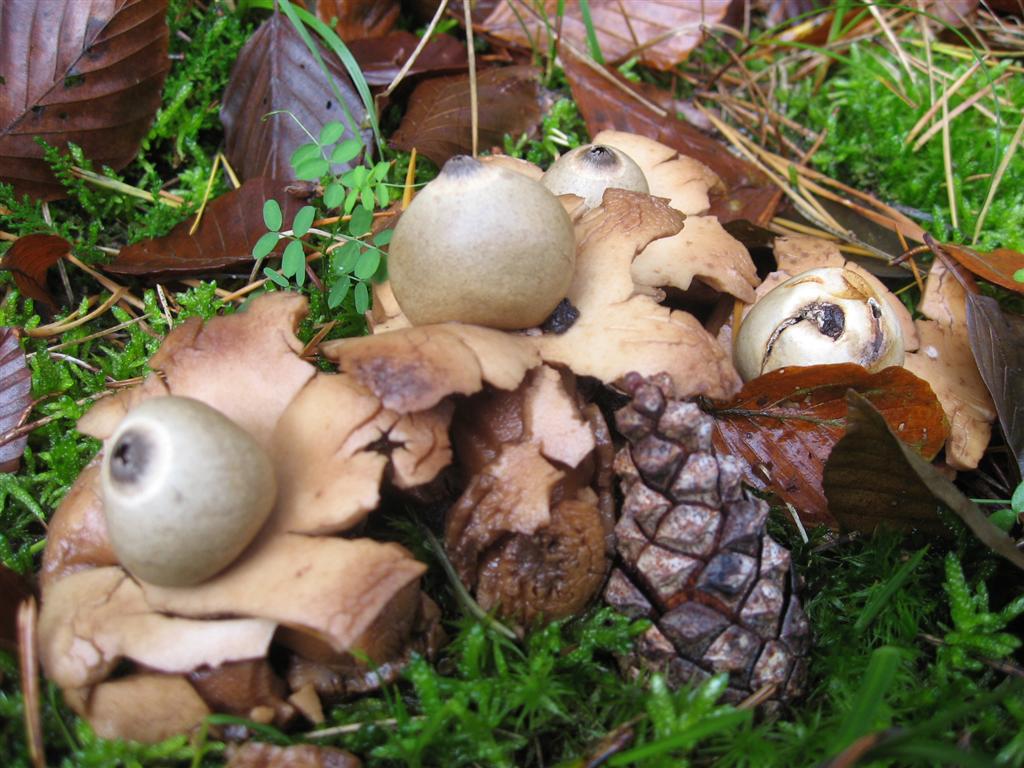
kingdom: Fungi
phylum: Basidiomycota
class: Agaricomycetes
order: Geastrales
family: Geastraceae
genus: Geastrum
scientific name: Geastrum michelianum
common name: kødet stjernebold
